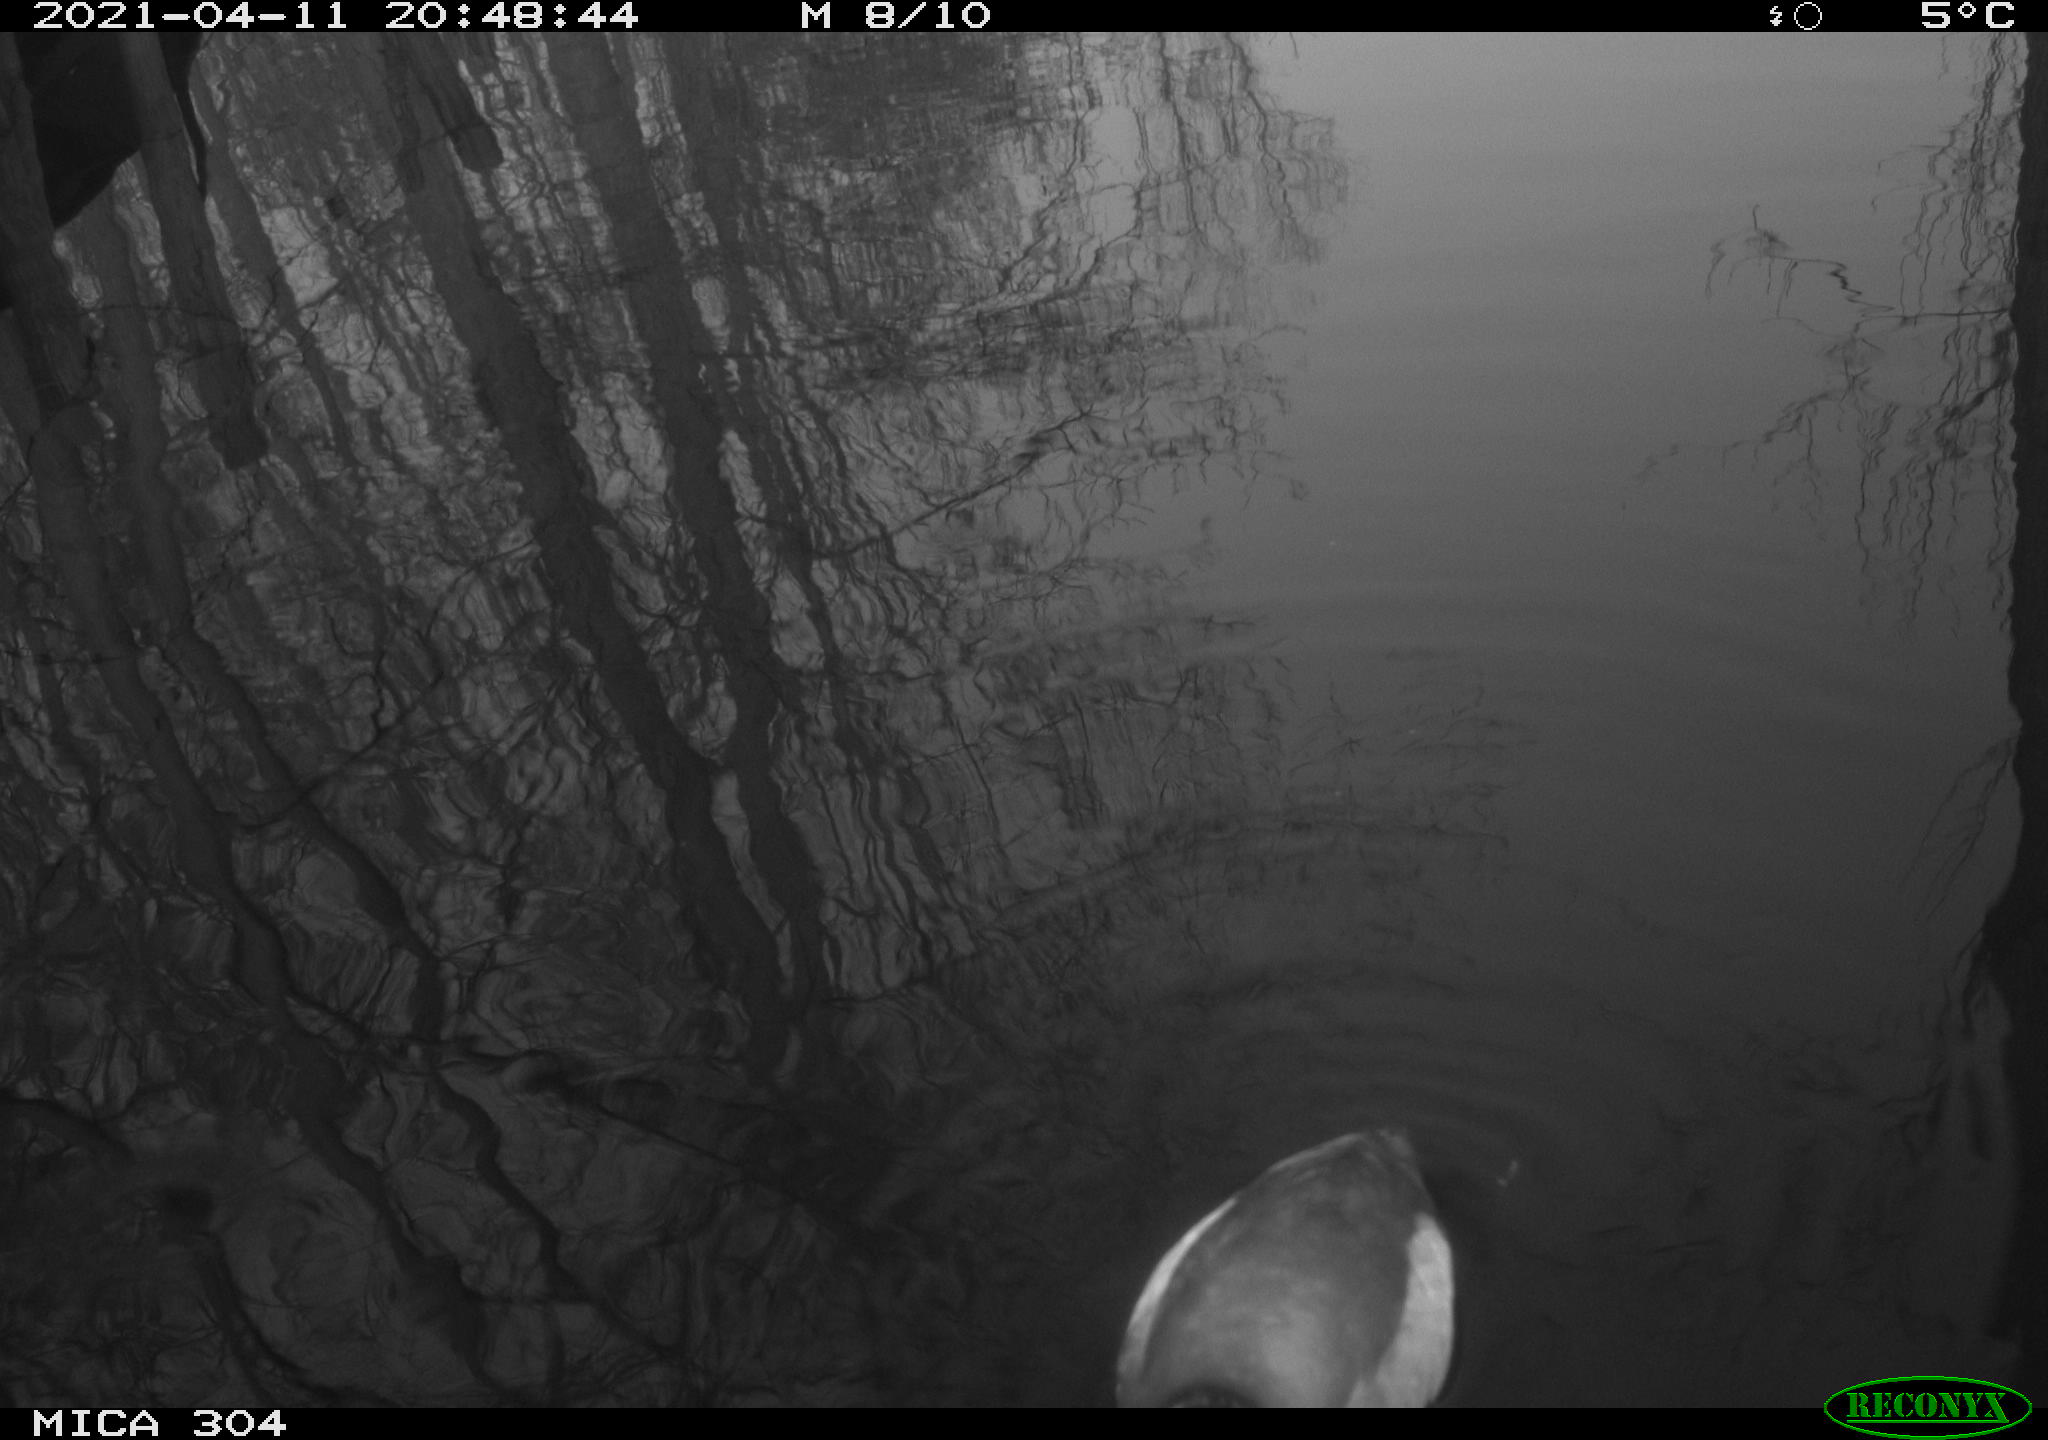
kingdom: Animalia
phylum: Chordata
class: Aves
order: Anseriformes
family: Anatidae
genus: Anas
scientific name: Anas
